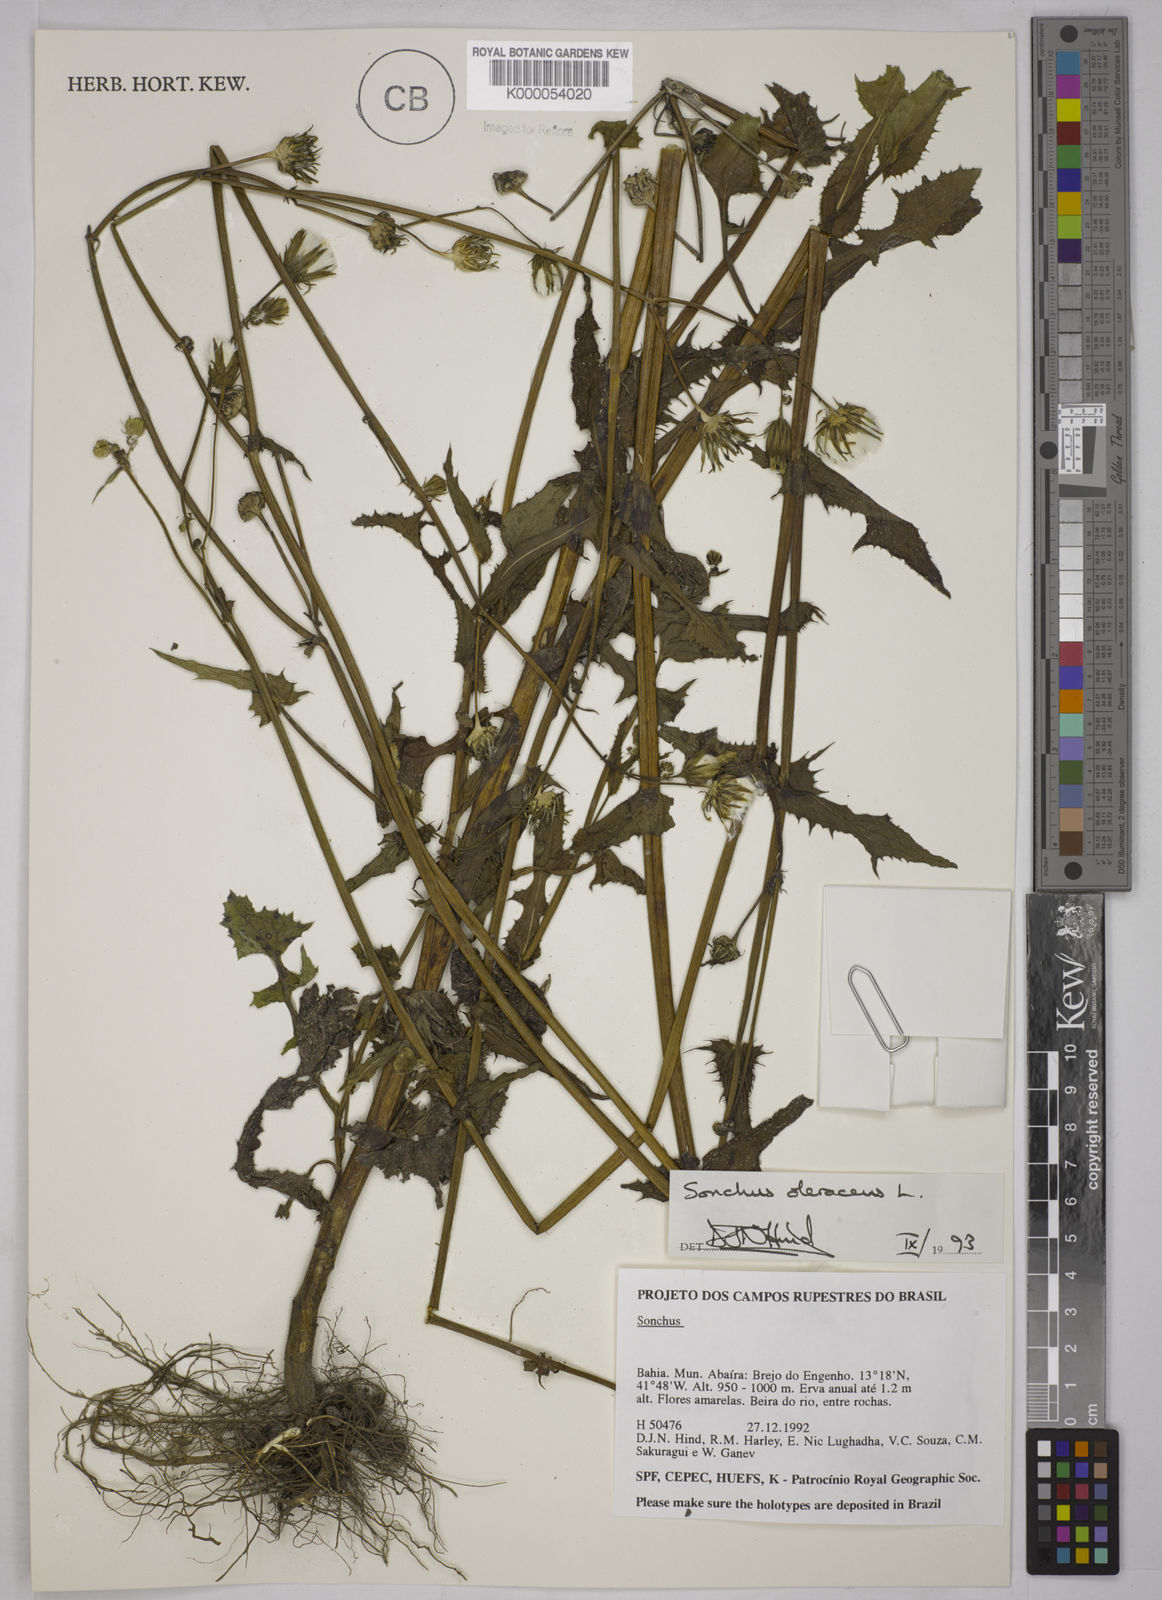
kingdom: Plantae
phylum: Tracheophyta
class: Magnoliopsida
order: Asterales
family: Asteraceae
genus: Sonchus
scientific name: Sonchus oleraceus
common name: Common sowthistle
